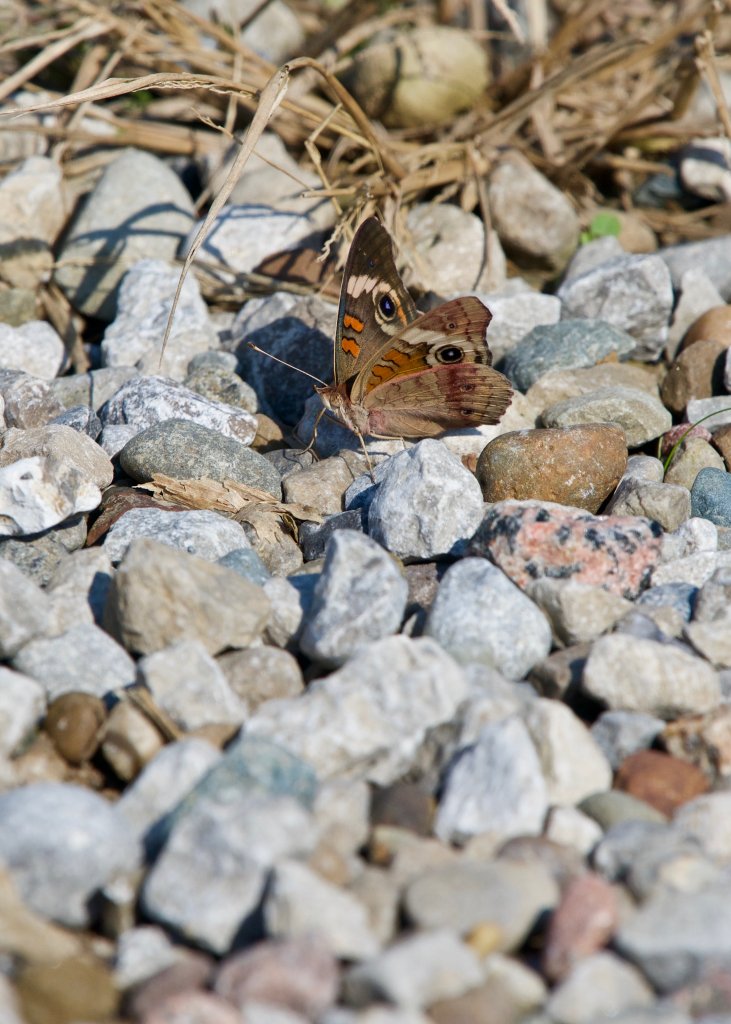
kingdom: Animalia
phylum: Arthropoda
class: Insecta
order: Lepidoptera
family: Nymphalidae
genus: Junonia
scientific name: Junonia coenia
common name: Common Buckeye
